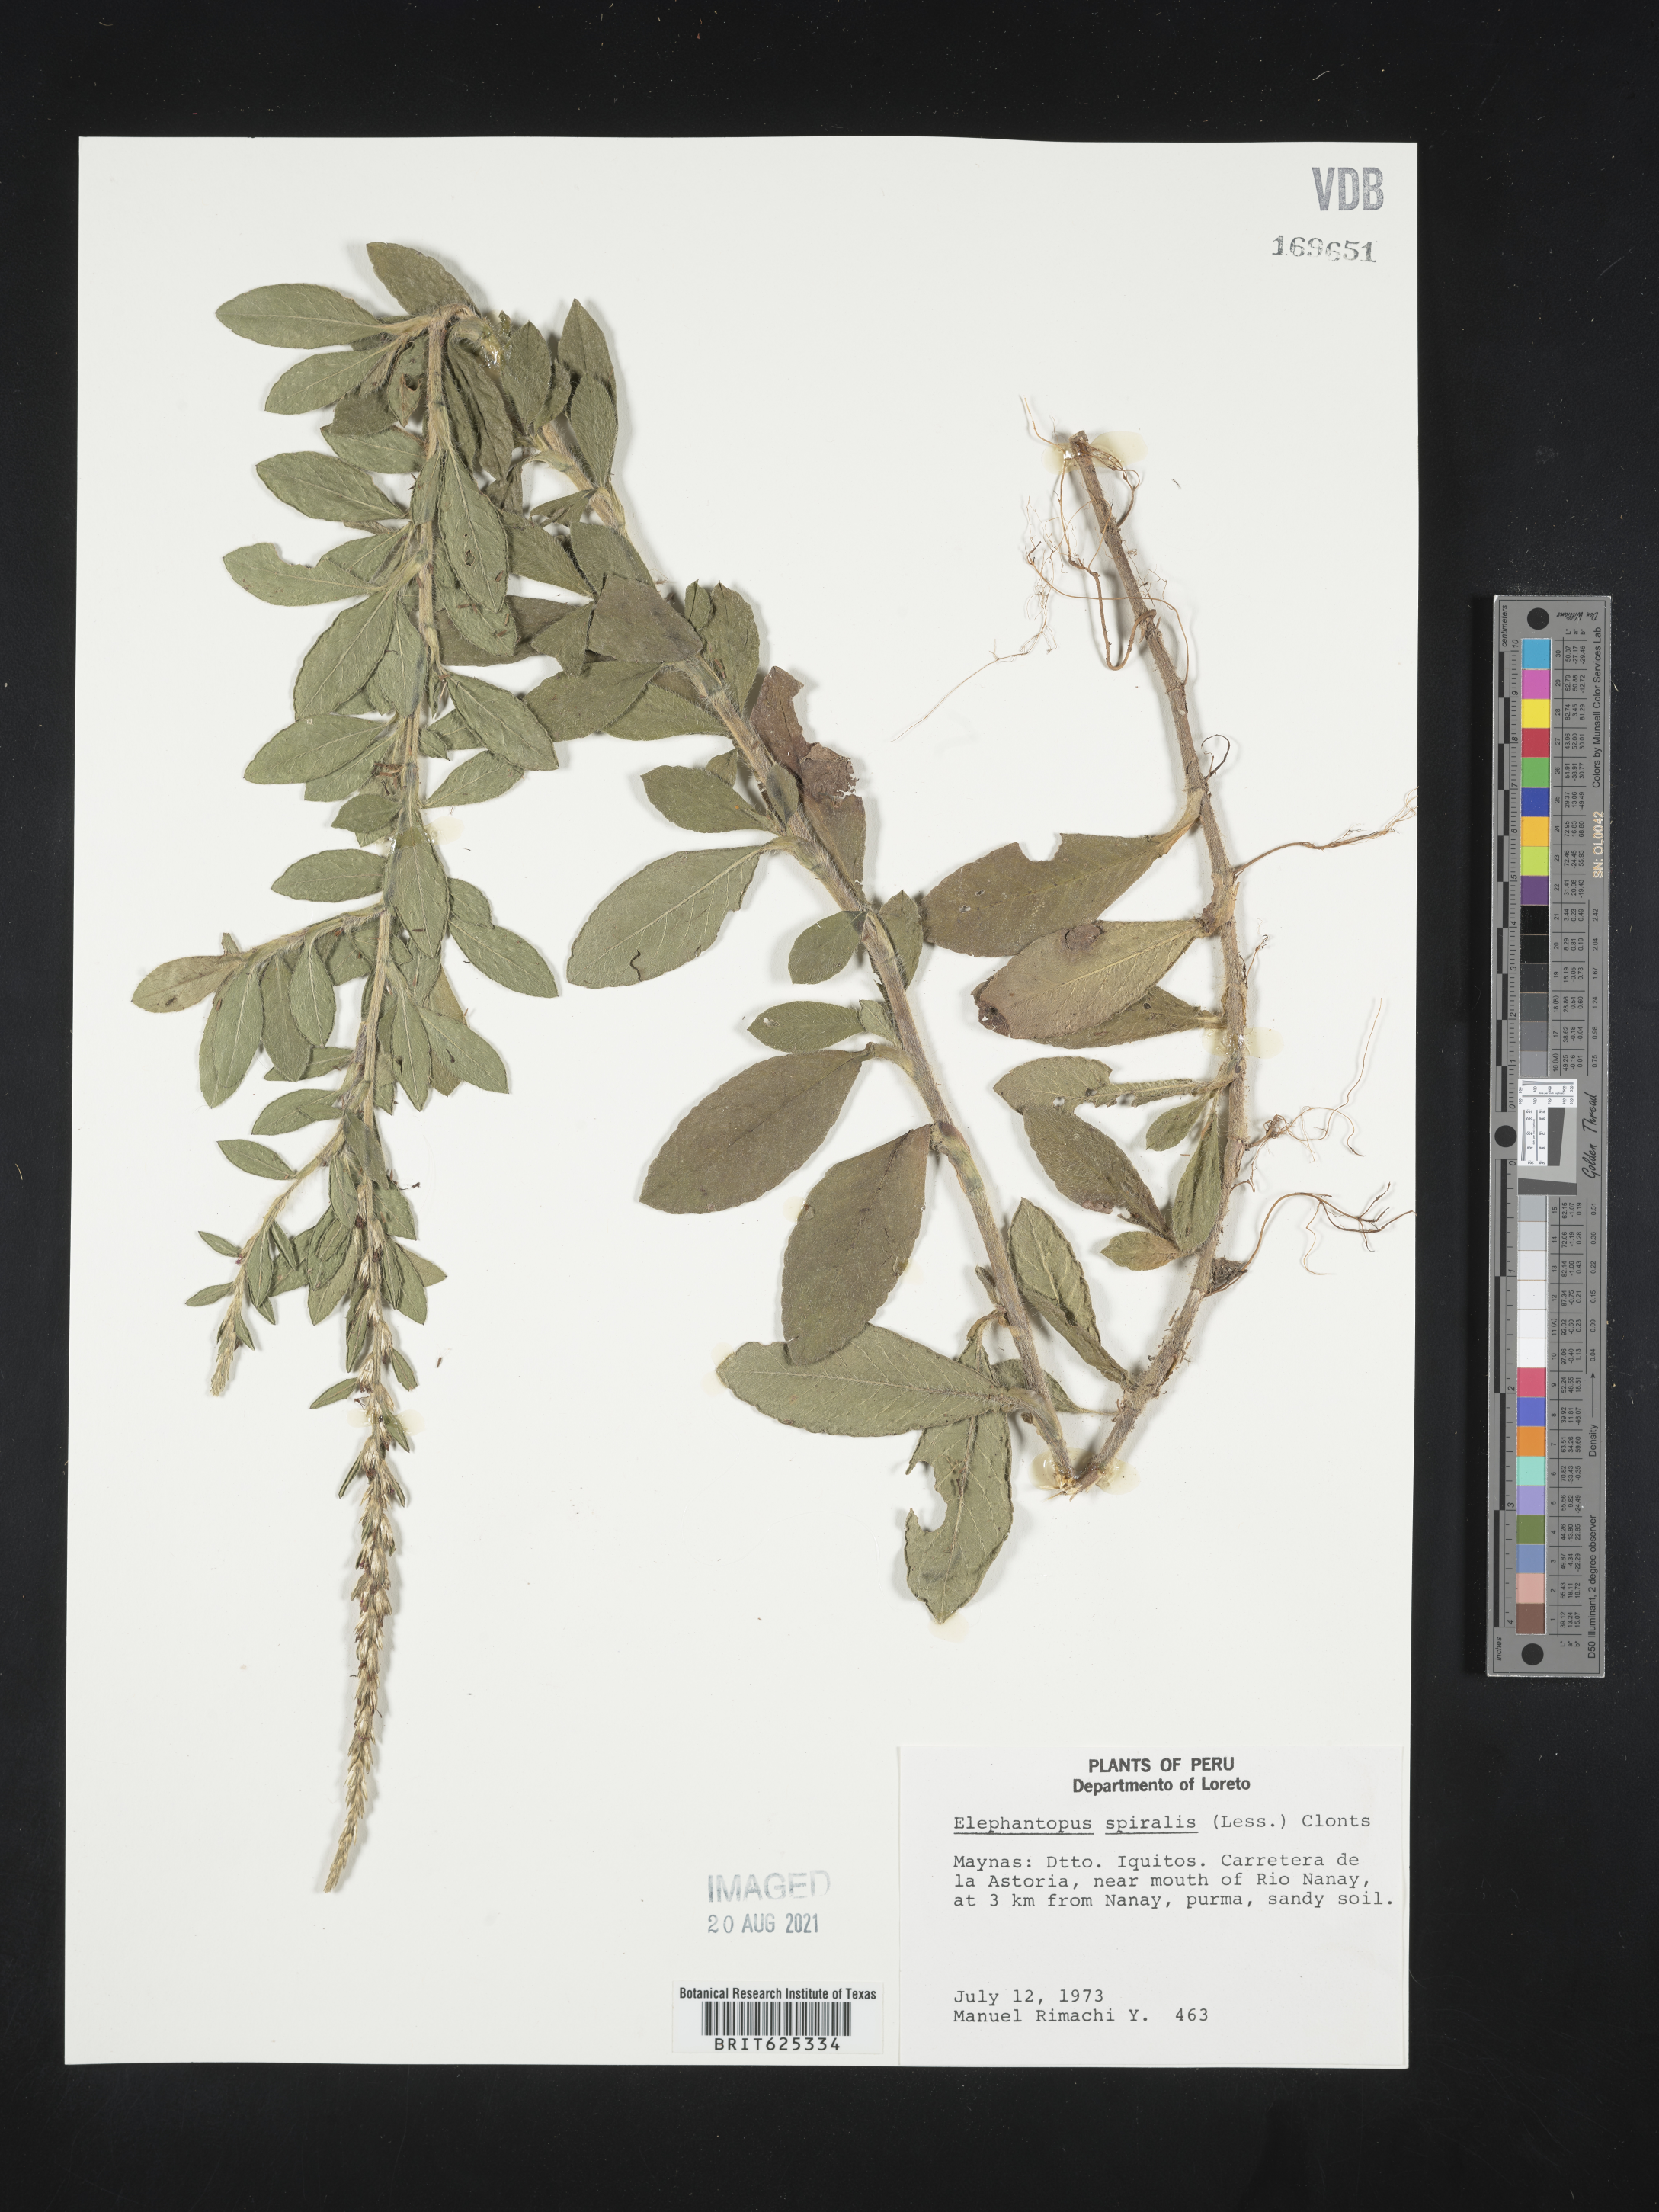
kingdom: Plantae
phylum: Tracheophyta
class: Magnoliopsida
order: Asterales
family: Asteraceae
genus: Pseudelephantopus
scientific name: Pseudelephantopus spiralis
